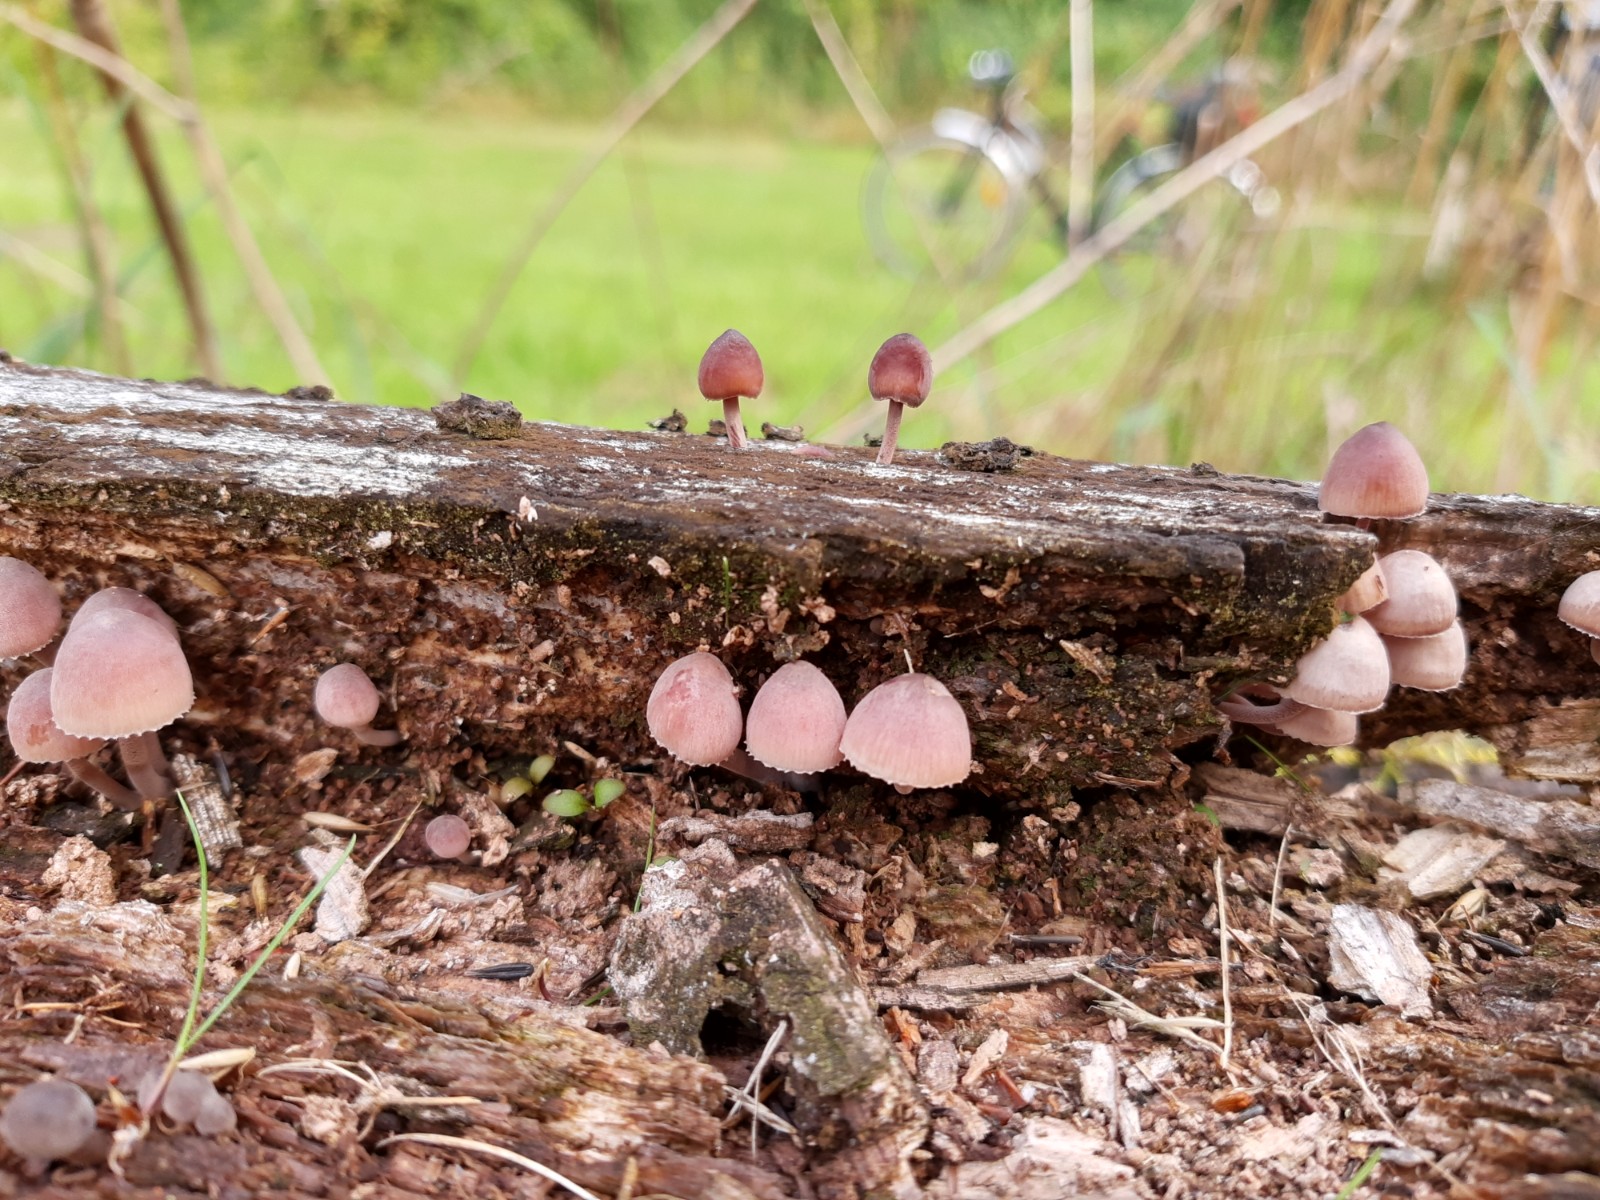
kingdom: Fungi
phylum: Basidiomycota
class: Agaricomycetes
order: Agaricales
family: Mycenaceae
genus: Mycena
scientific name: Mycena haematopus
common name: blødende huesvamp
